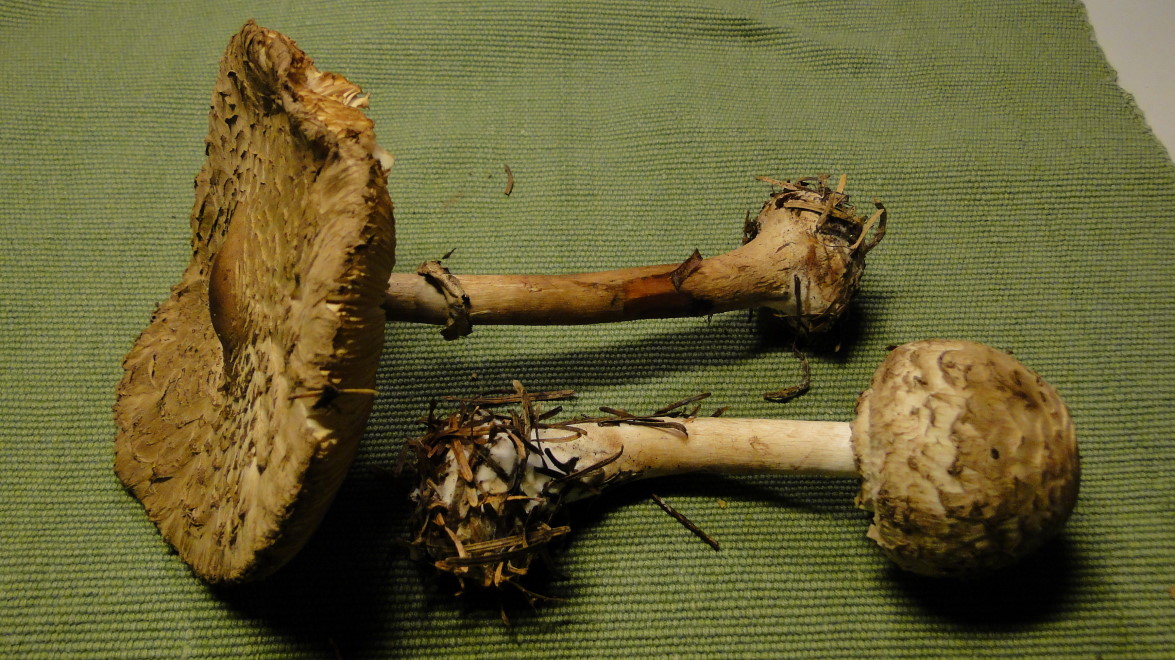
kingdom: Fungi
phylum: Basidiomycota
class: Agaricomycetes
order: Agaricales
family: Agaricaceae
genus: Chlorophyllum
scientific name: Chlorophyllum olivieri
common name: almindelig rabarberhat
